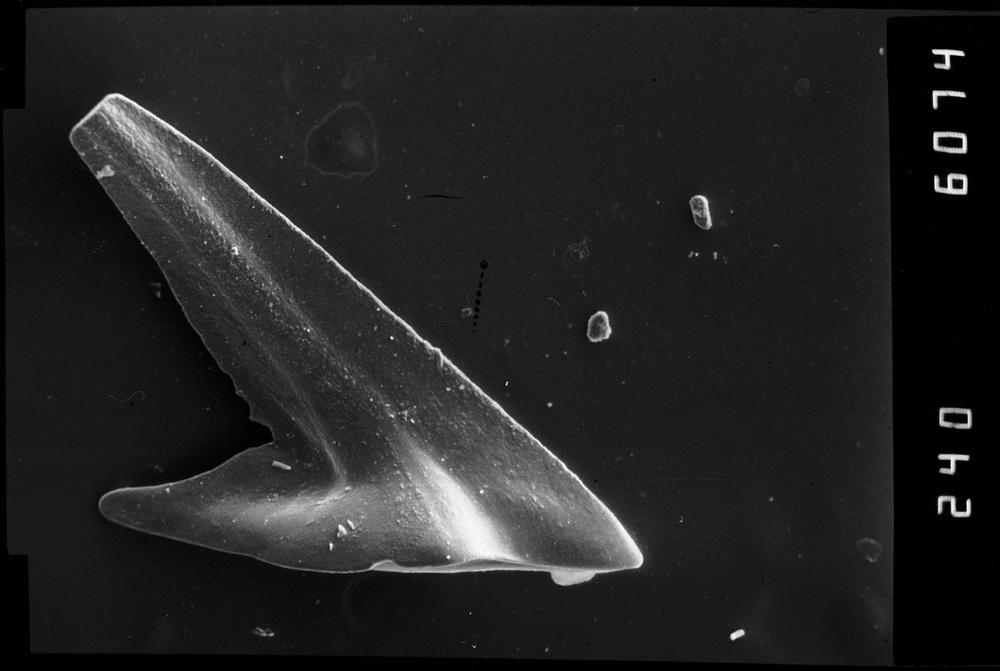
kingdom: Animalia
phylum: Annelida
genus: Paltodus
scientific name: Paltodus subaequalis
